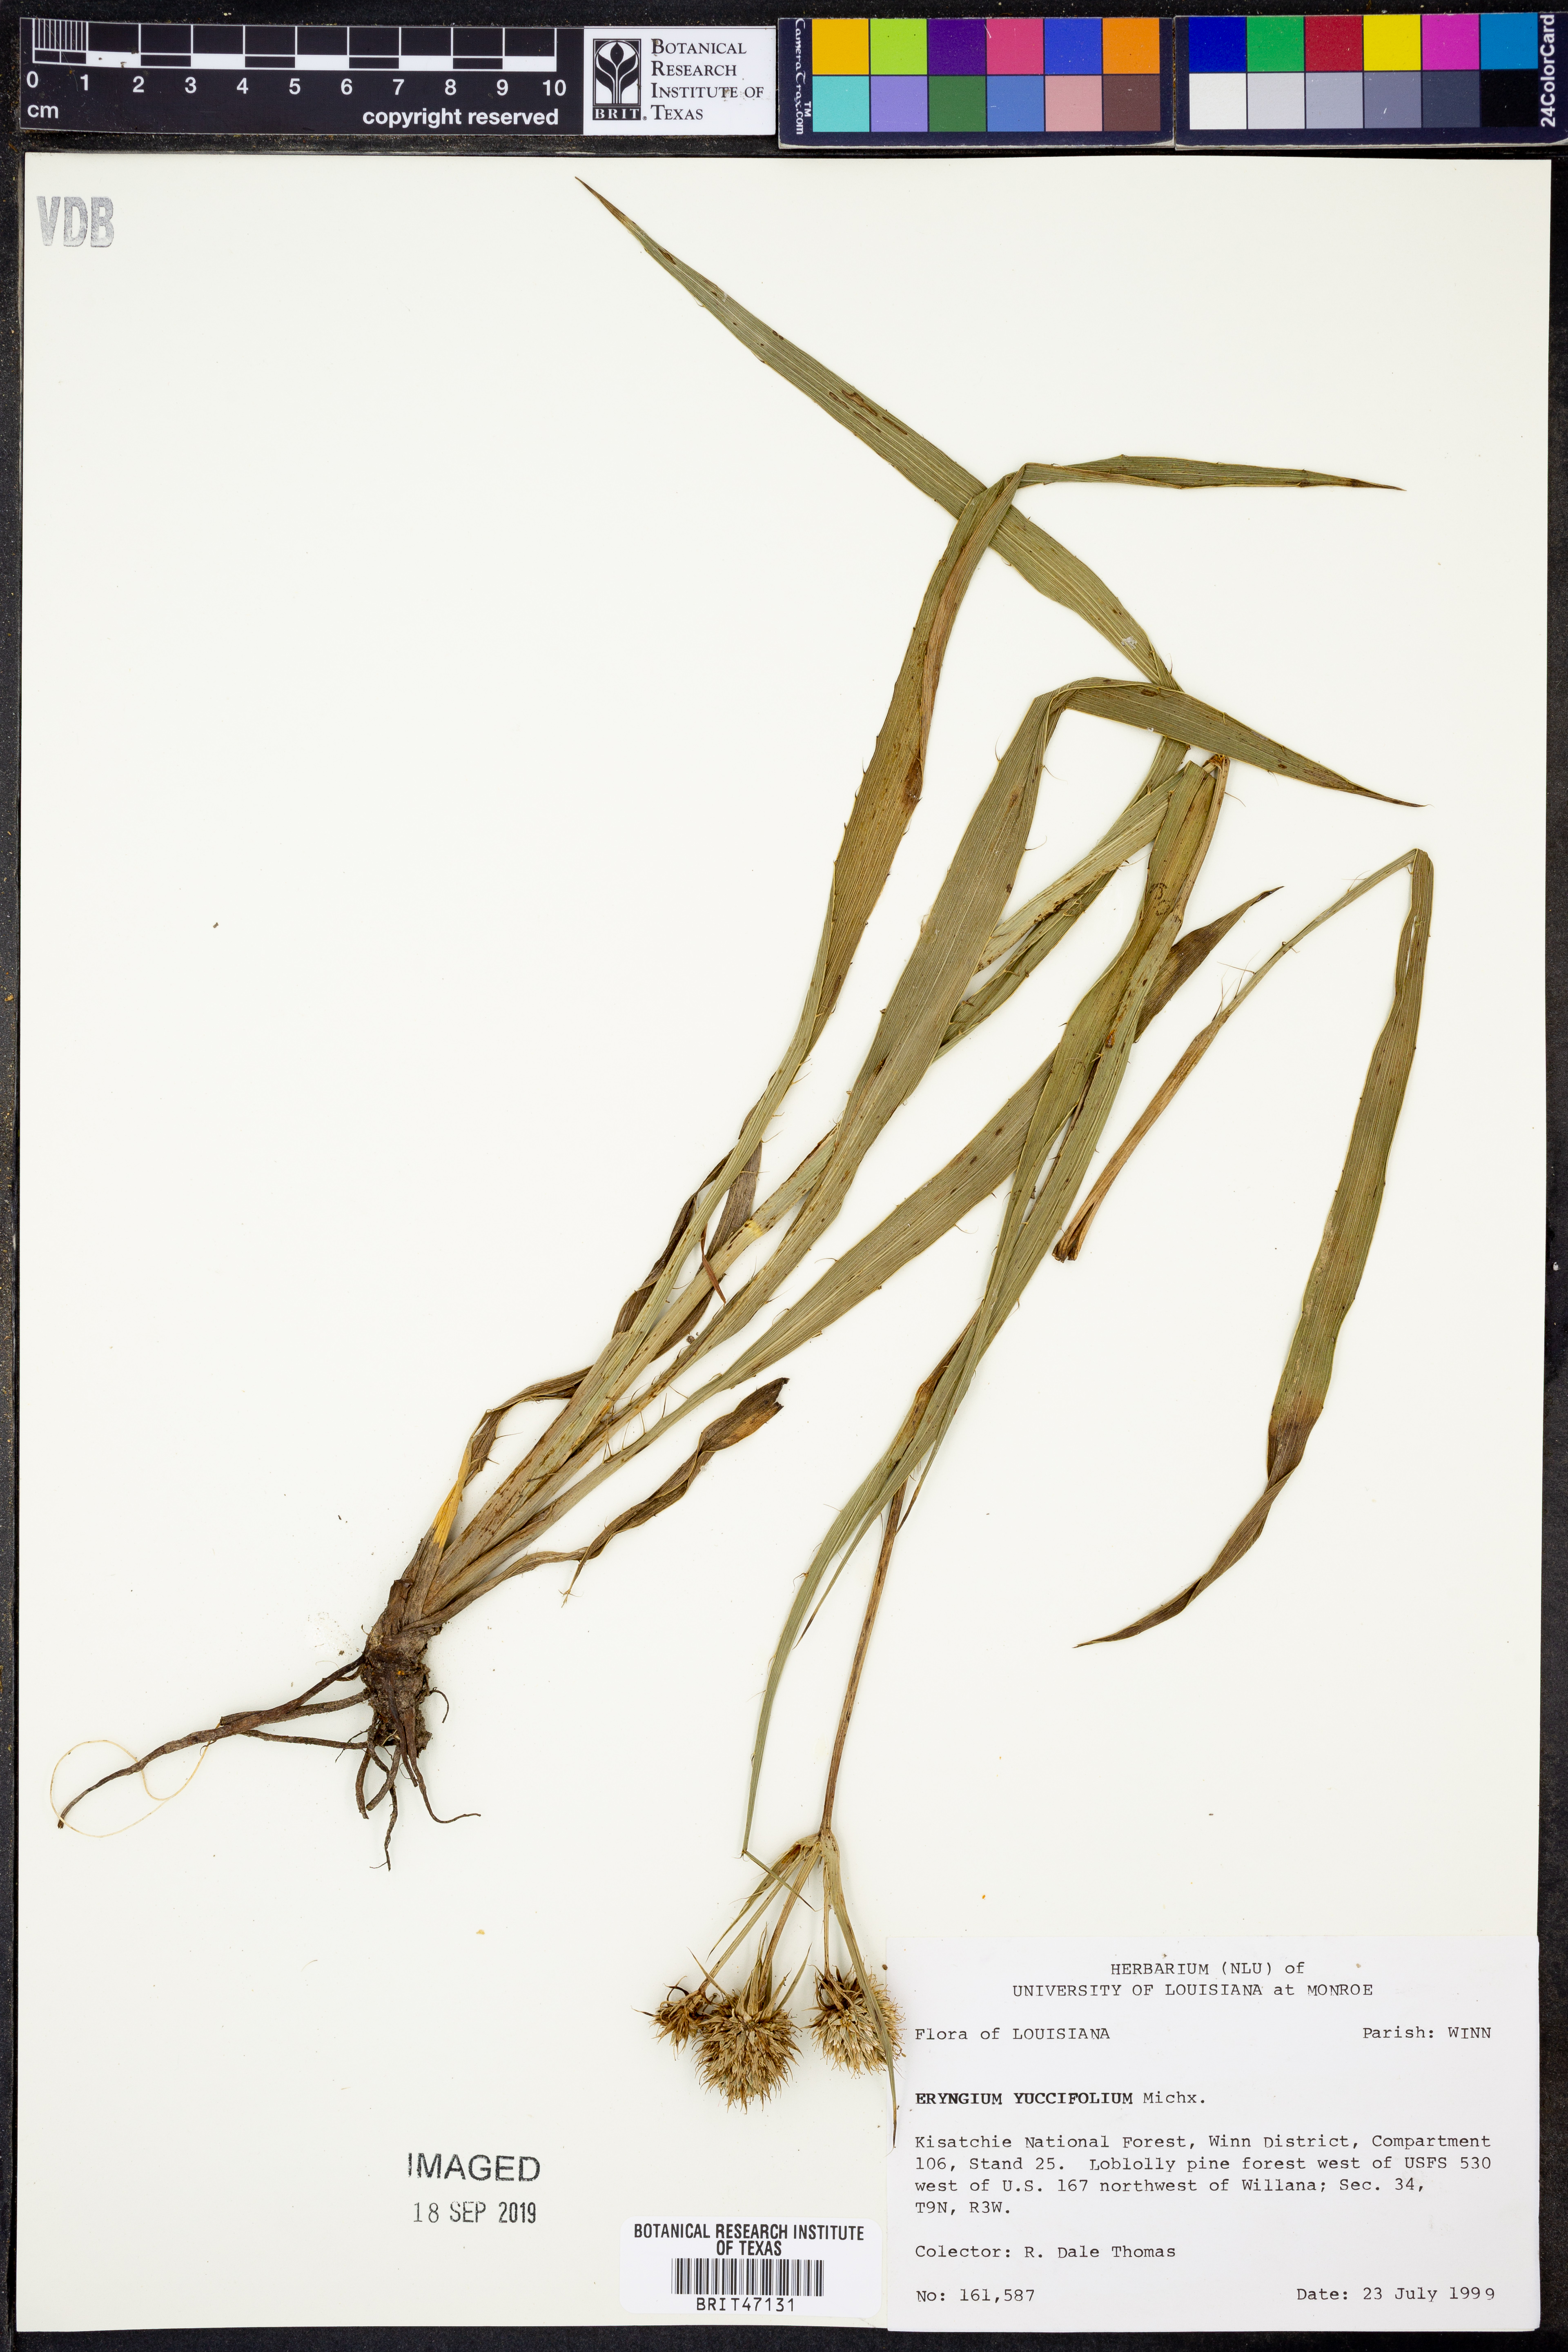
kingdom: Plantae
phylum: Tracheophyta
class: Magnoliopsida
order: Apiales
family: Apiaceae
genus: Eryngium
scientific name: Eryngium yuccifolium
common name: Button eryngo
